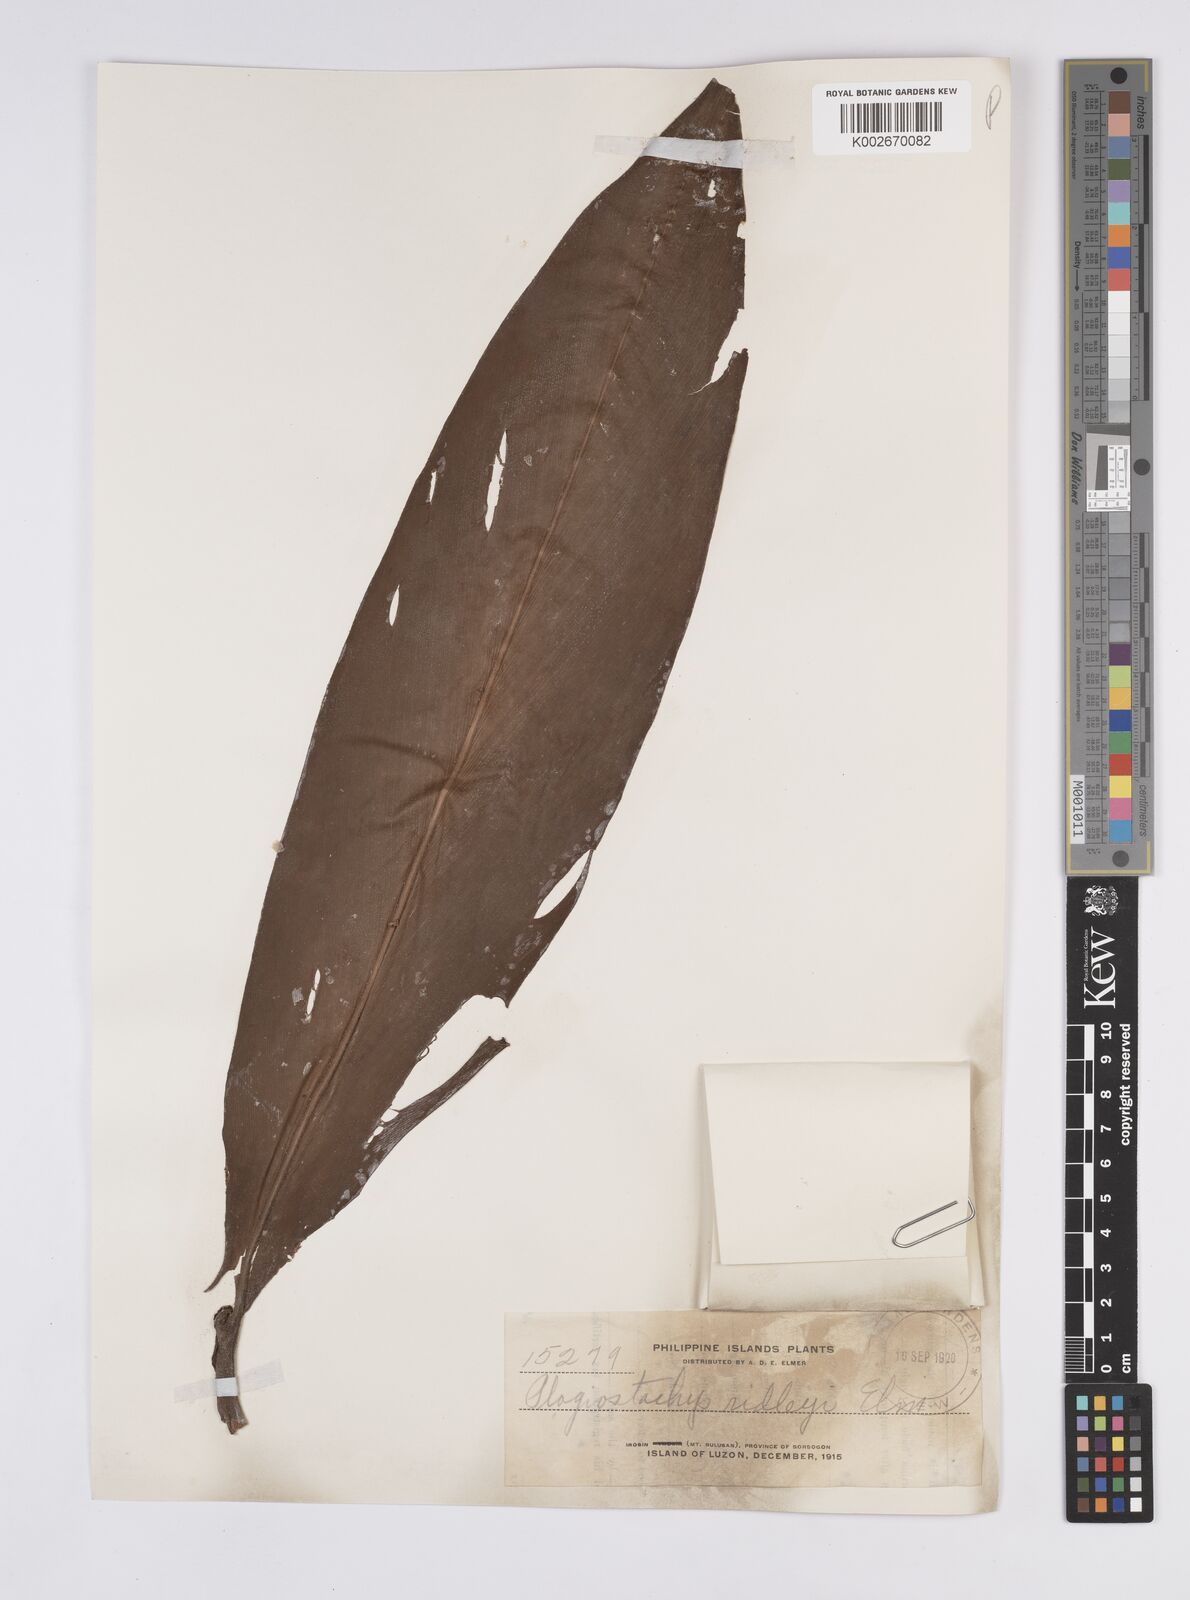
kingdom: Plantae
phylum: Tracheophyta
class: Liliopsida
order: Zingiberales
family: Zingiberaceae
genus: Plagiostachys
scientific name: Plagiostachys philippinensis
